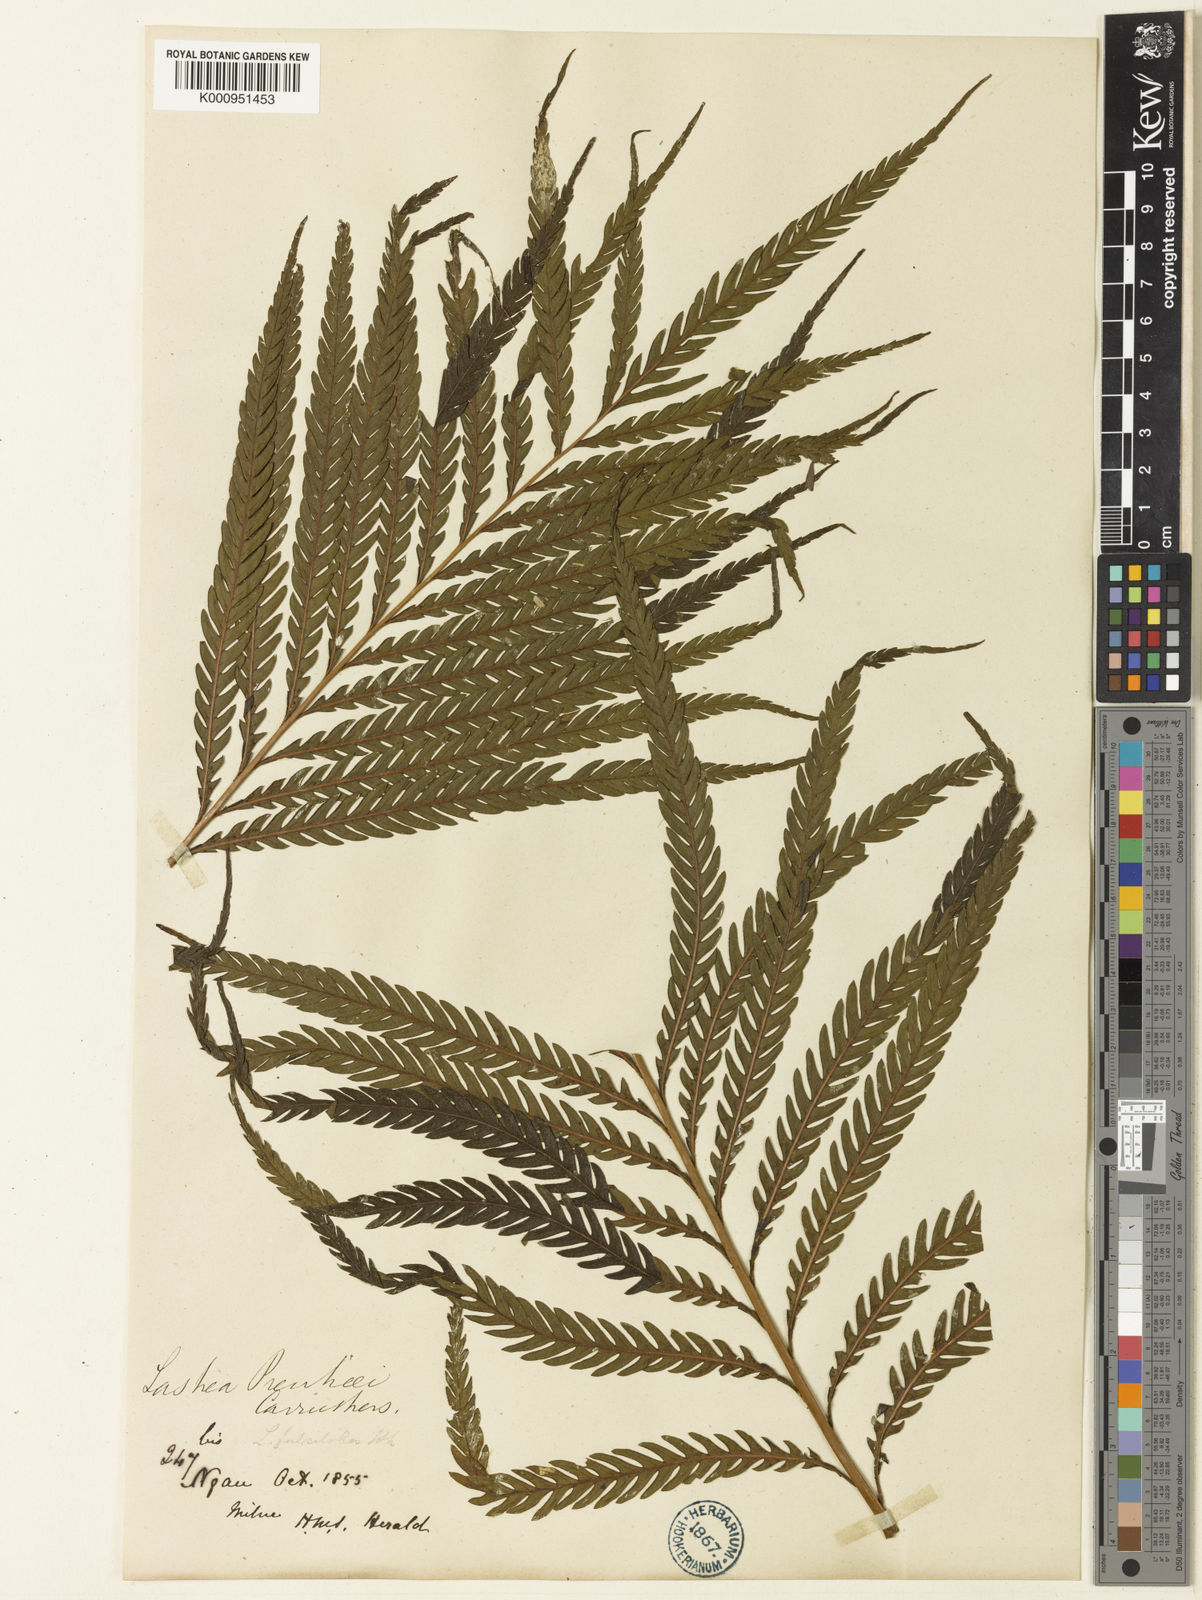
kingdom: Plantae
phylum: Tracheophyta
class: Polypodiopsida
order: Polypodiales
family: Thelypteridaceae
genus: Plesioneuron
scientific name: Plesioneuron prenticei
